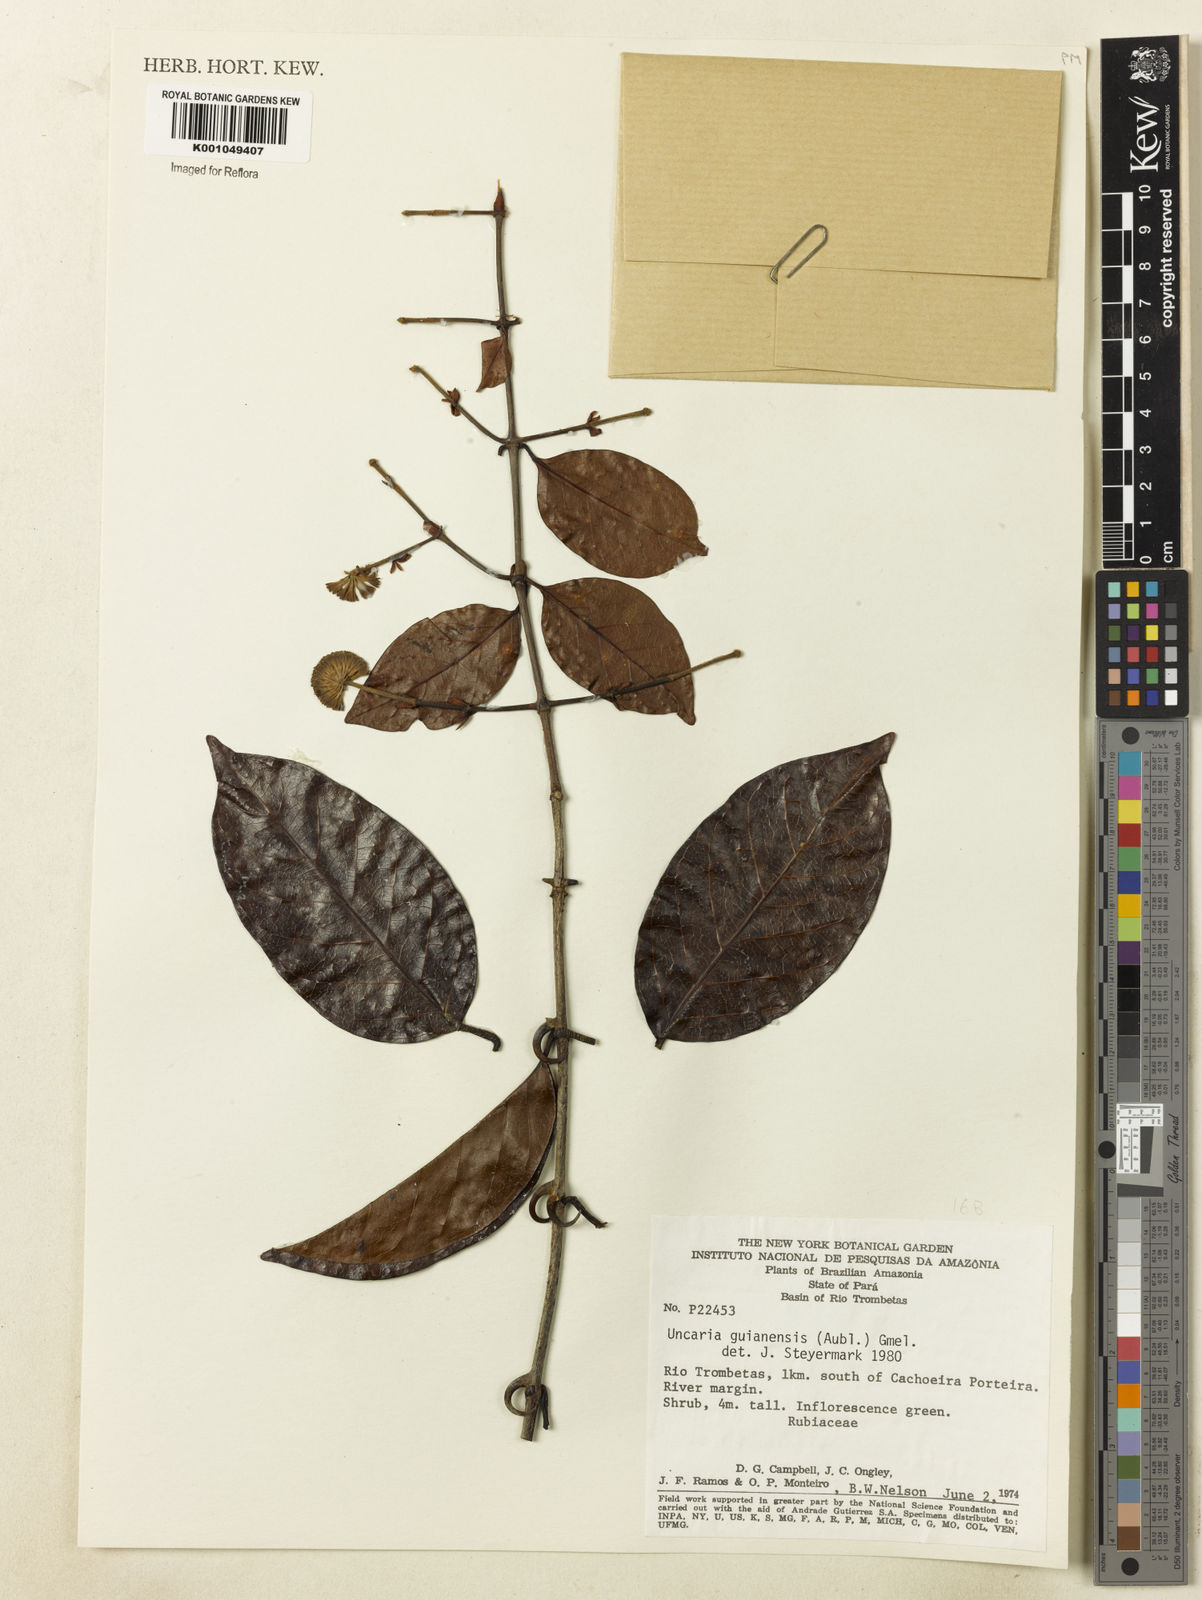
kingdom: Plantae
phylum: Tracheophyta
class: Magnoliopsida
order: Gentianales
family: Rubiaceae
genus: Uncaria
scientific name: Uncaria guianensis
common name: Cat's-claw
